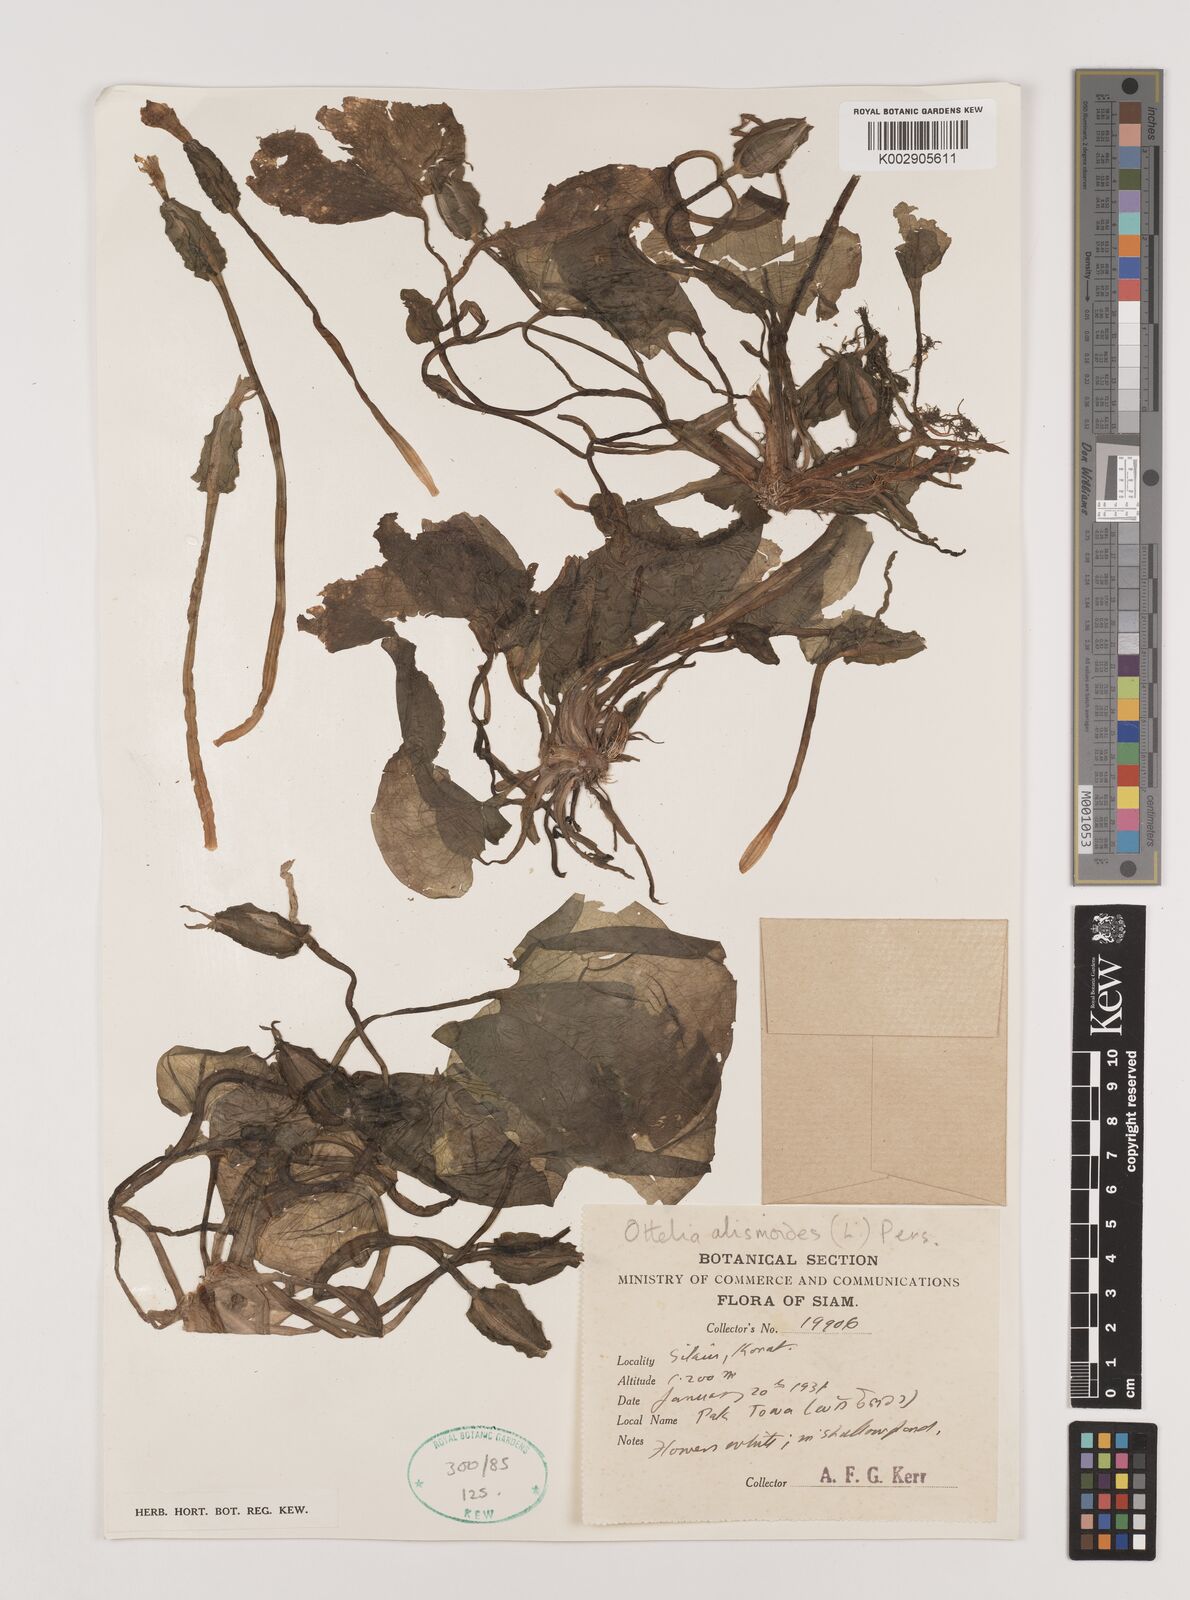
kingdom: Plantae
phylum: Tracheophyta
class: Liliopsida
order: Alismatales
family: Hydrocharitaceae
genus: Ottelia
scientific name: Ottelia alismoides
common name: Duck-lettuce
